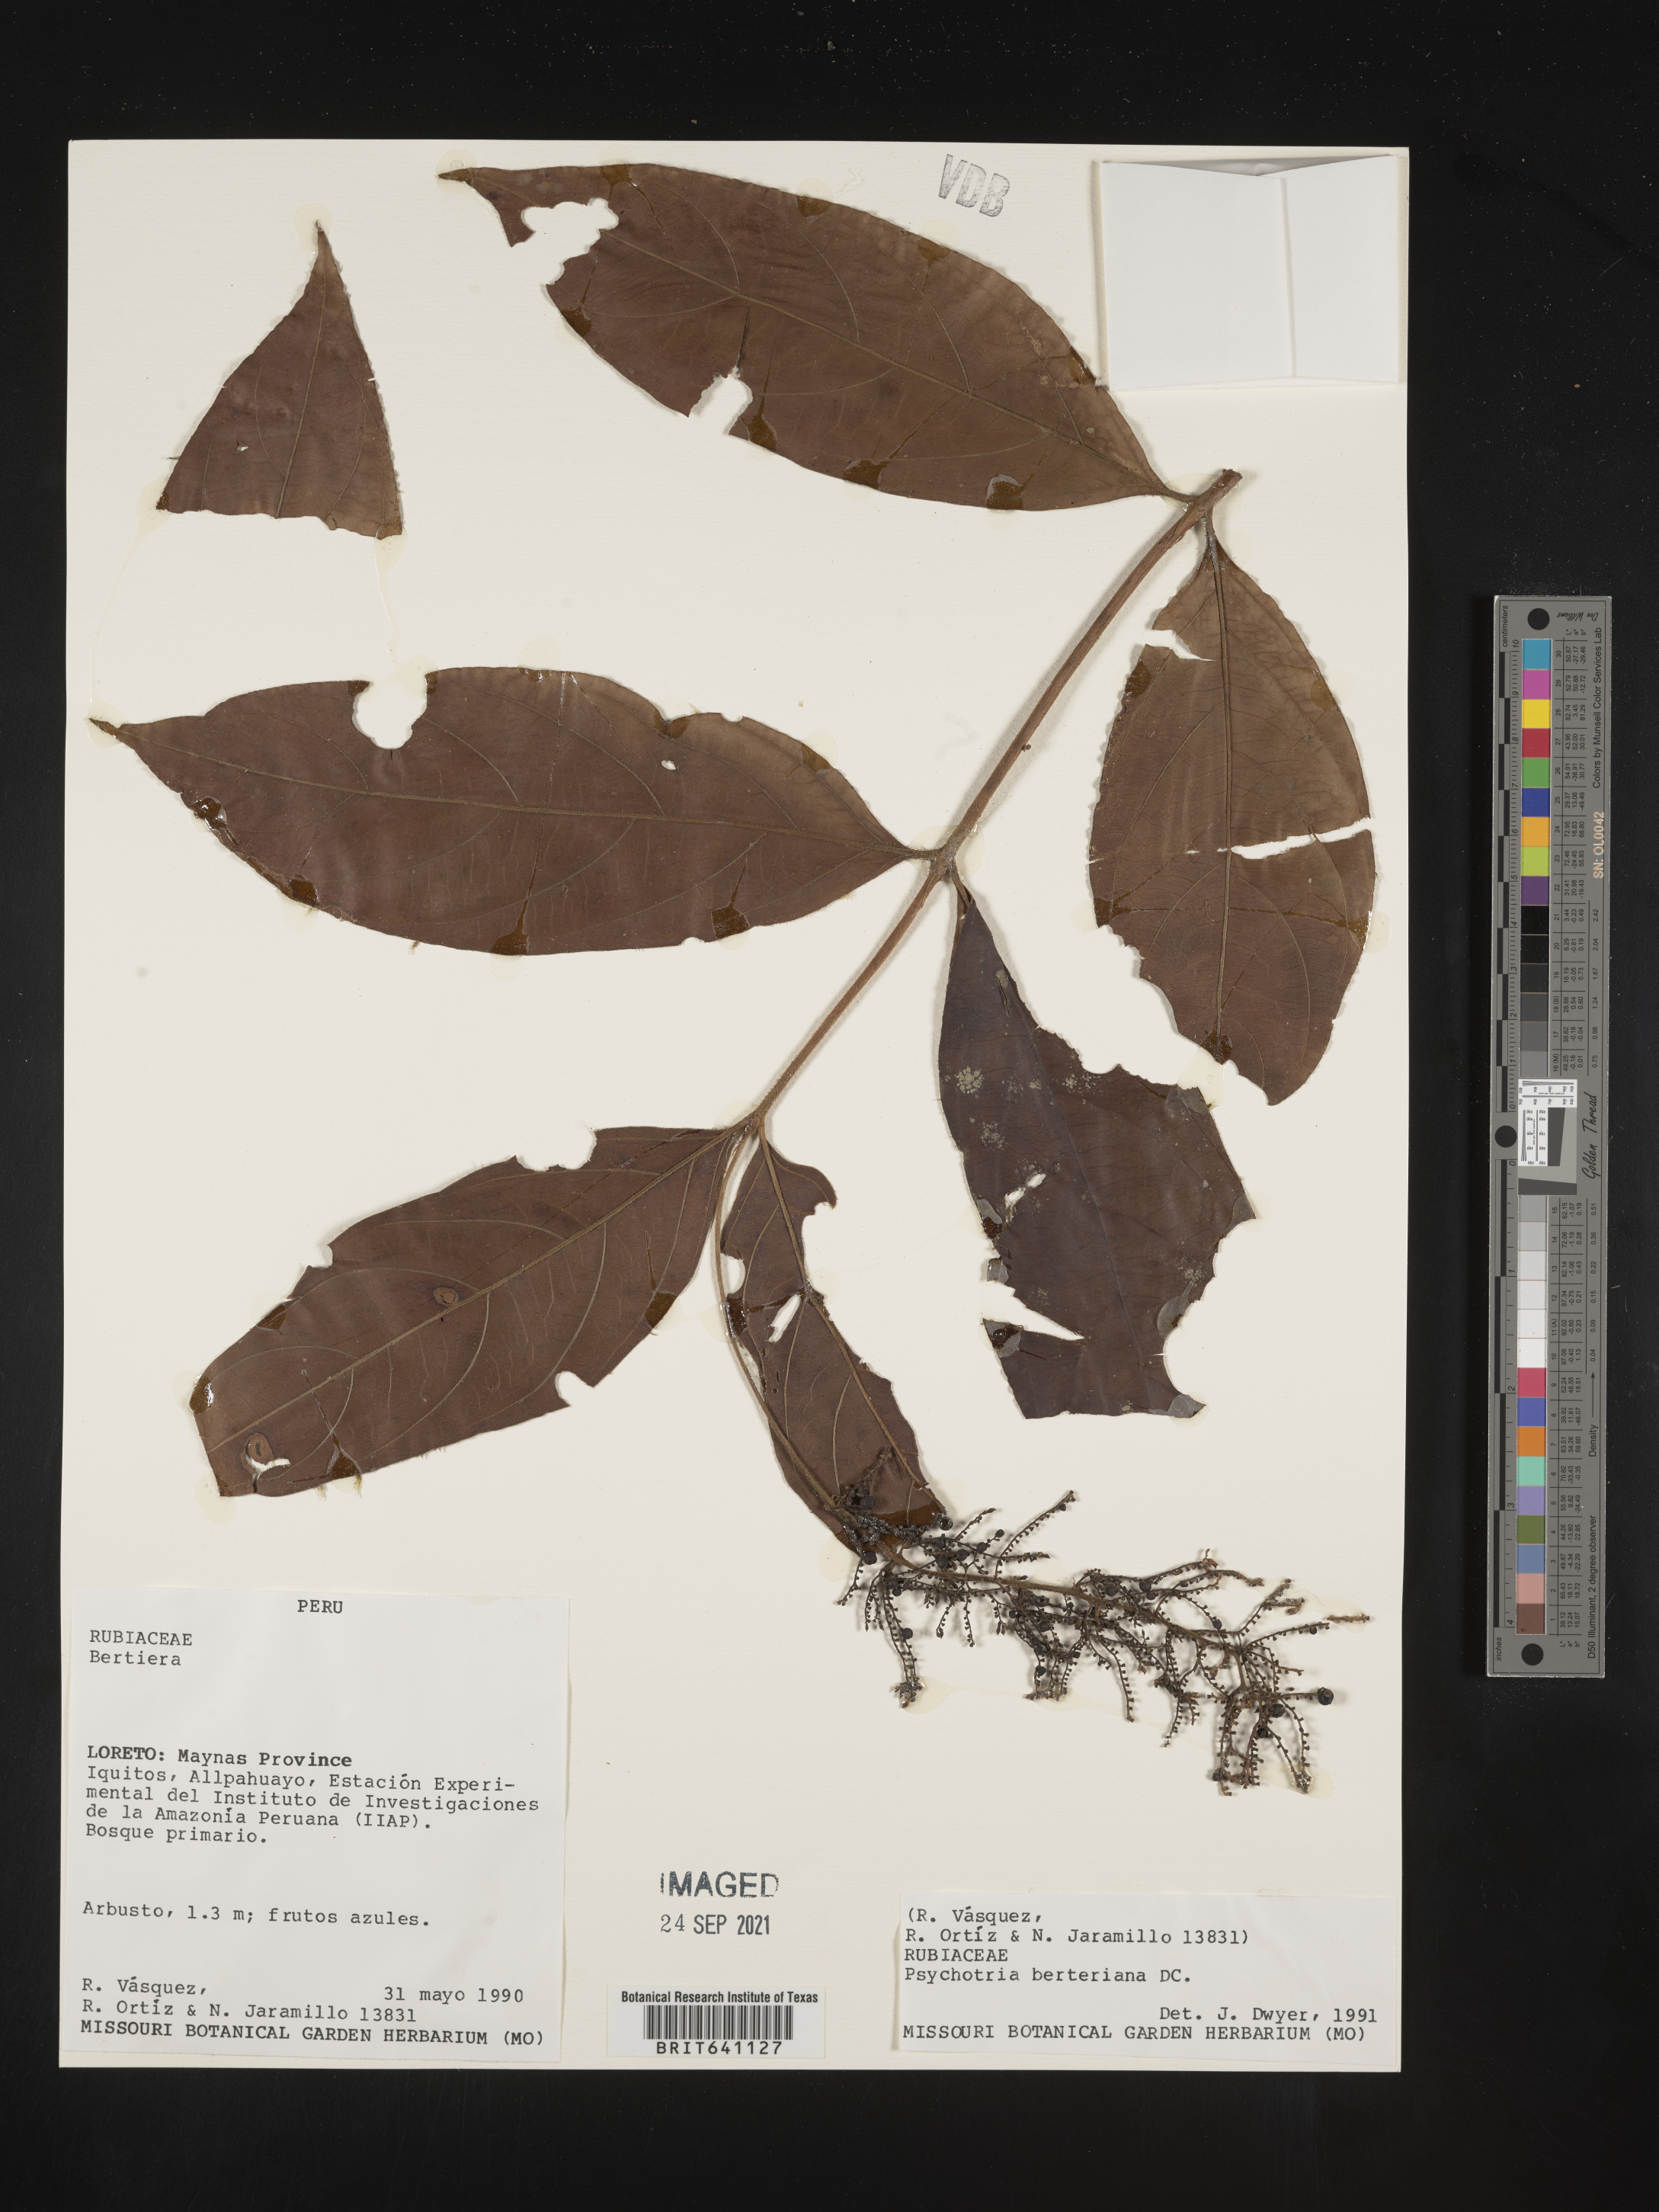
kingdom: Plantae
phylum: Tracheophyta
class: Magnoliopsida
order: Gentianales
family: Rubiaceae
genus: Psychotria
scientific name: Psychotria
